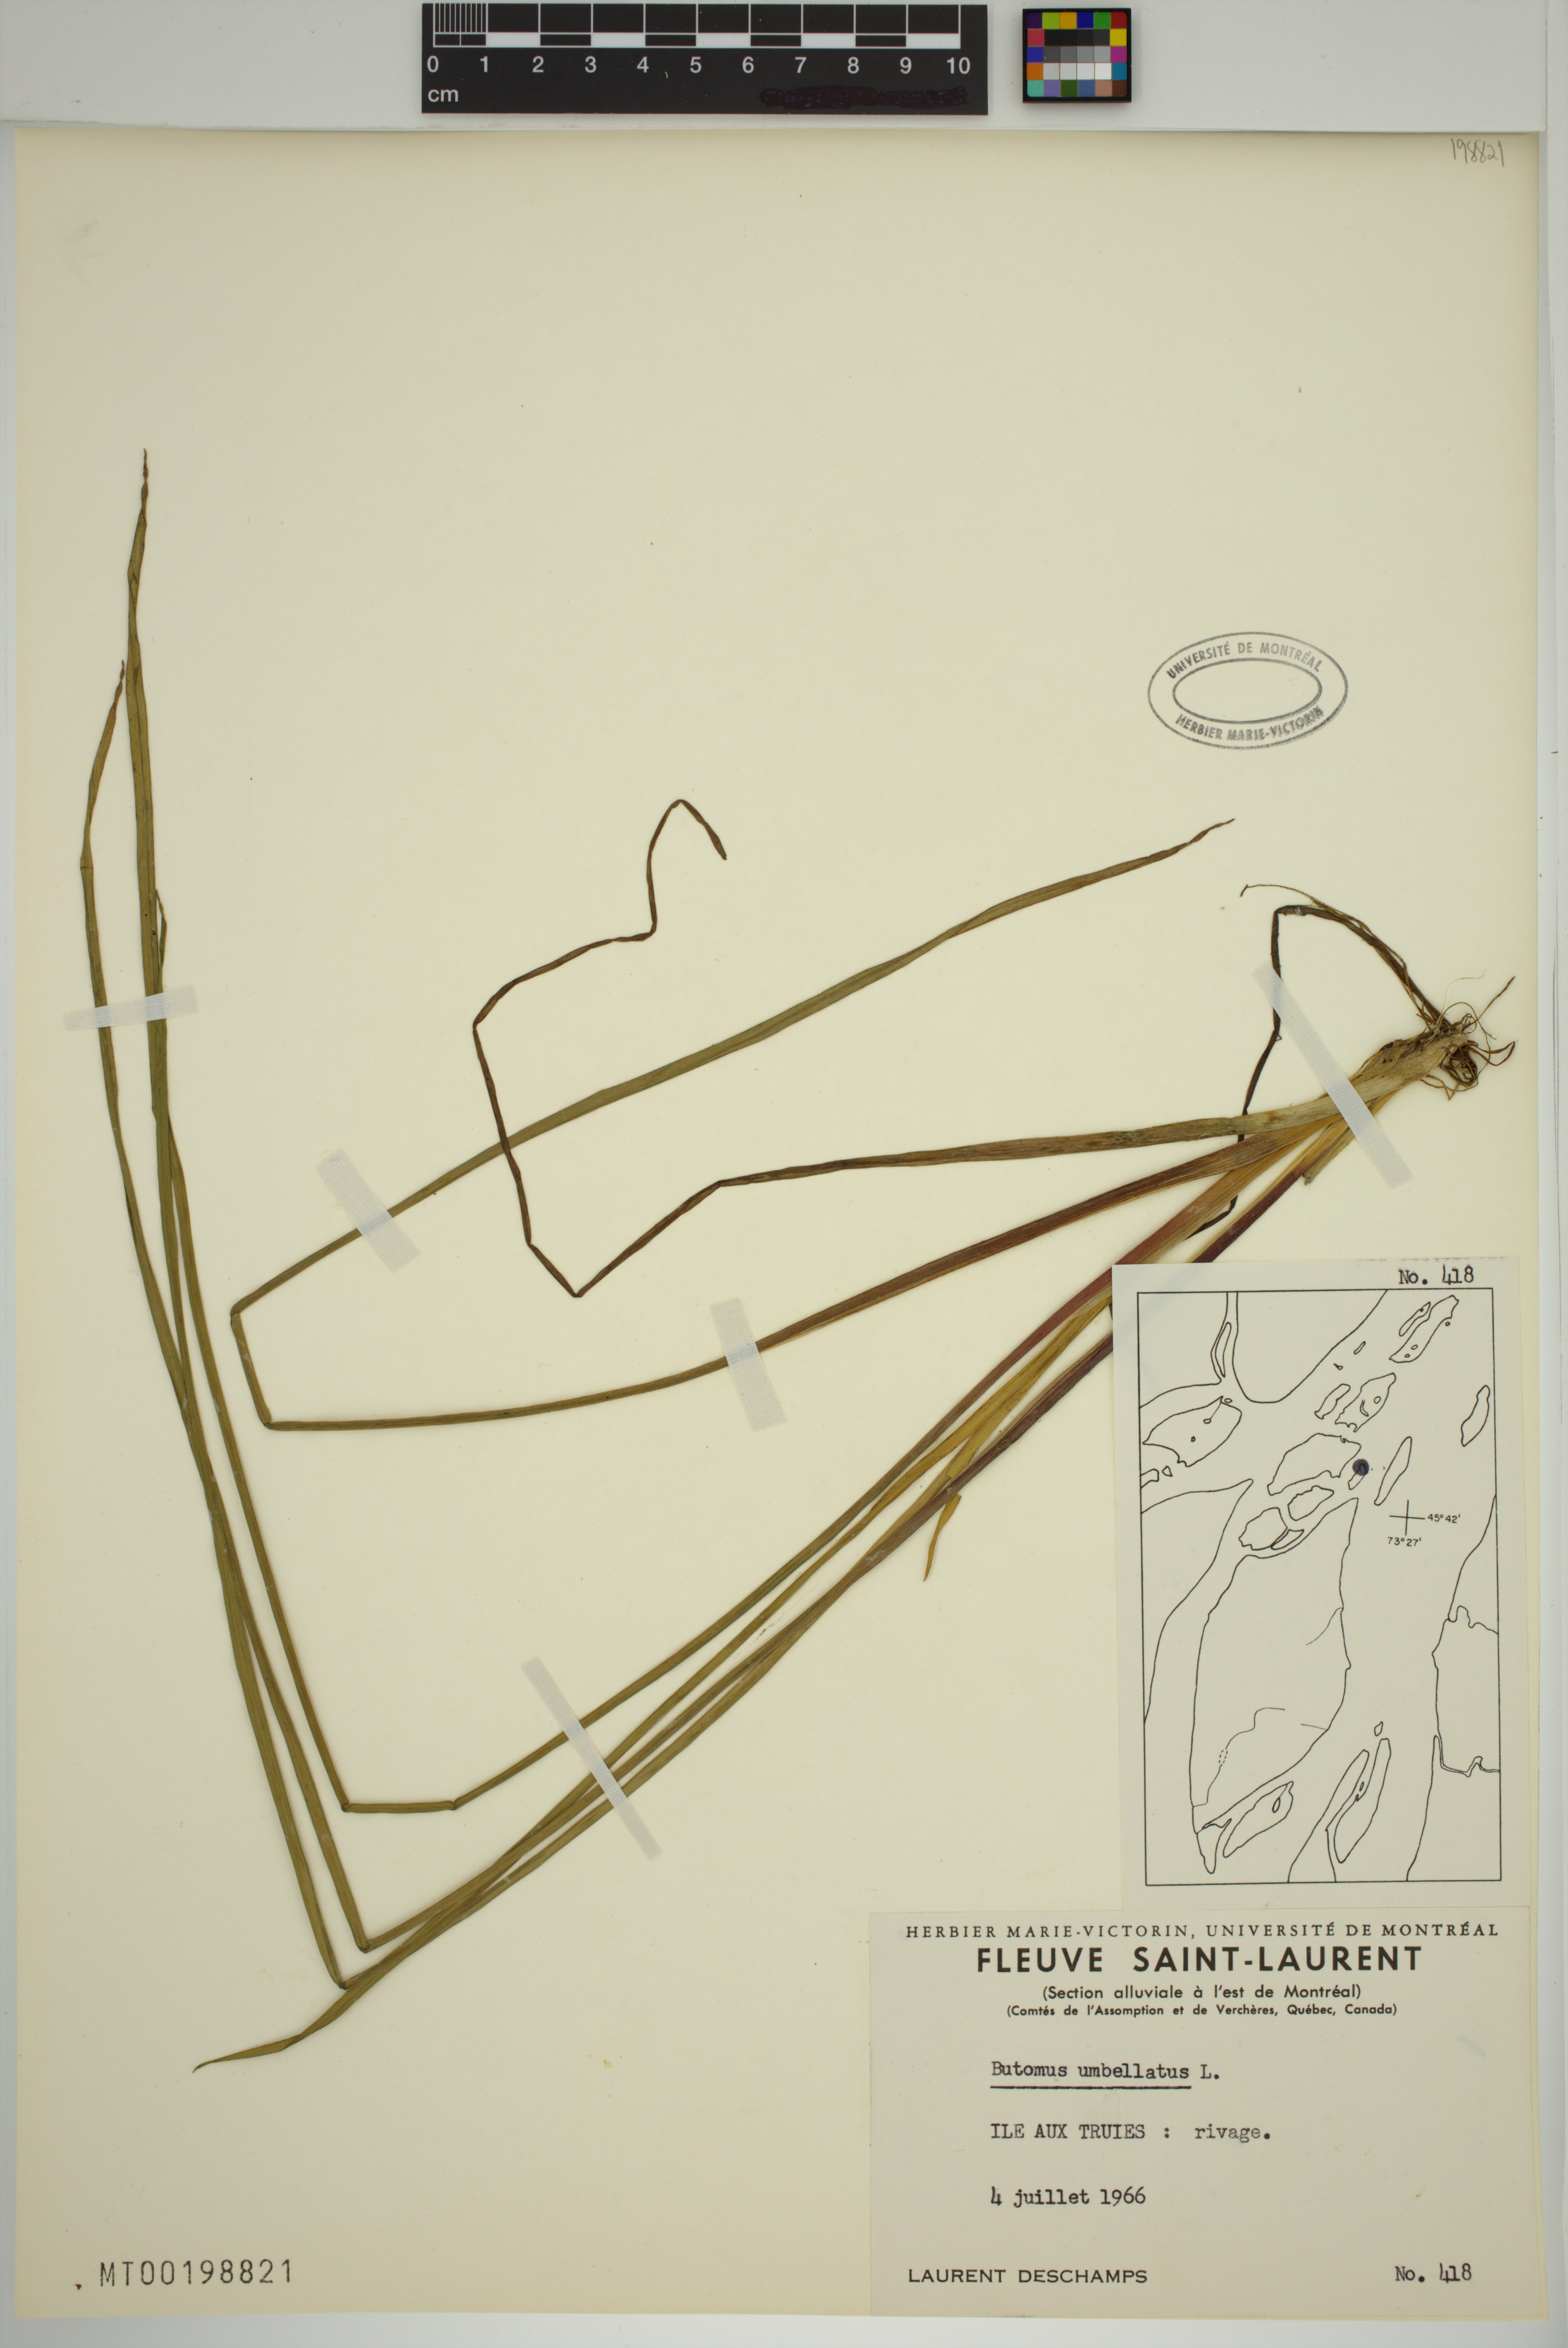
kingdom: Plantae
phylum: Tracheophyta
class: Liliopsida
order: Alismatales
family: Butomaceae
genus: Butomus
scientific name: Butomus umbellatus
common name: Flowering-rush
